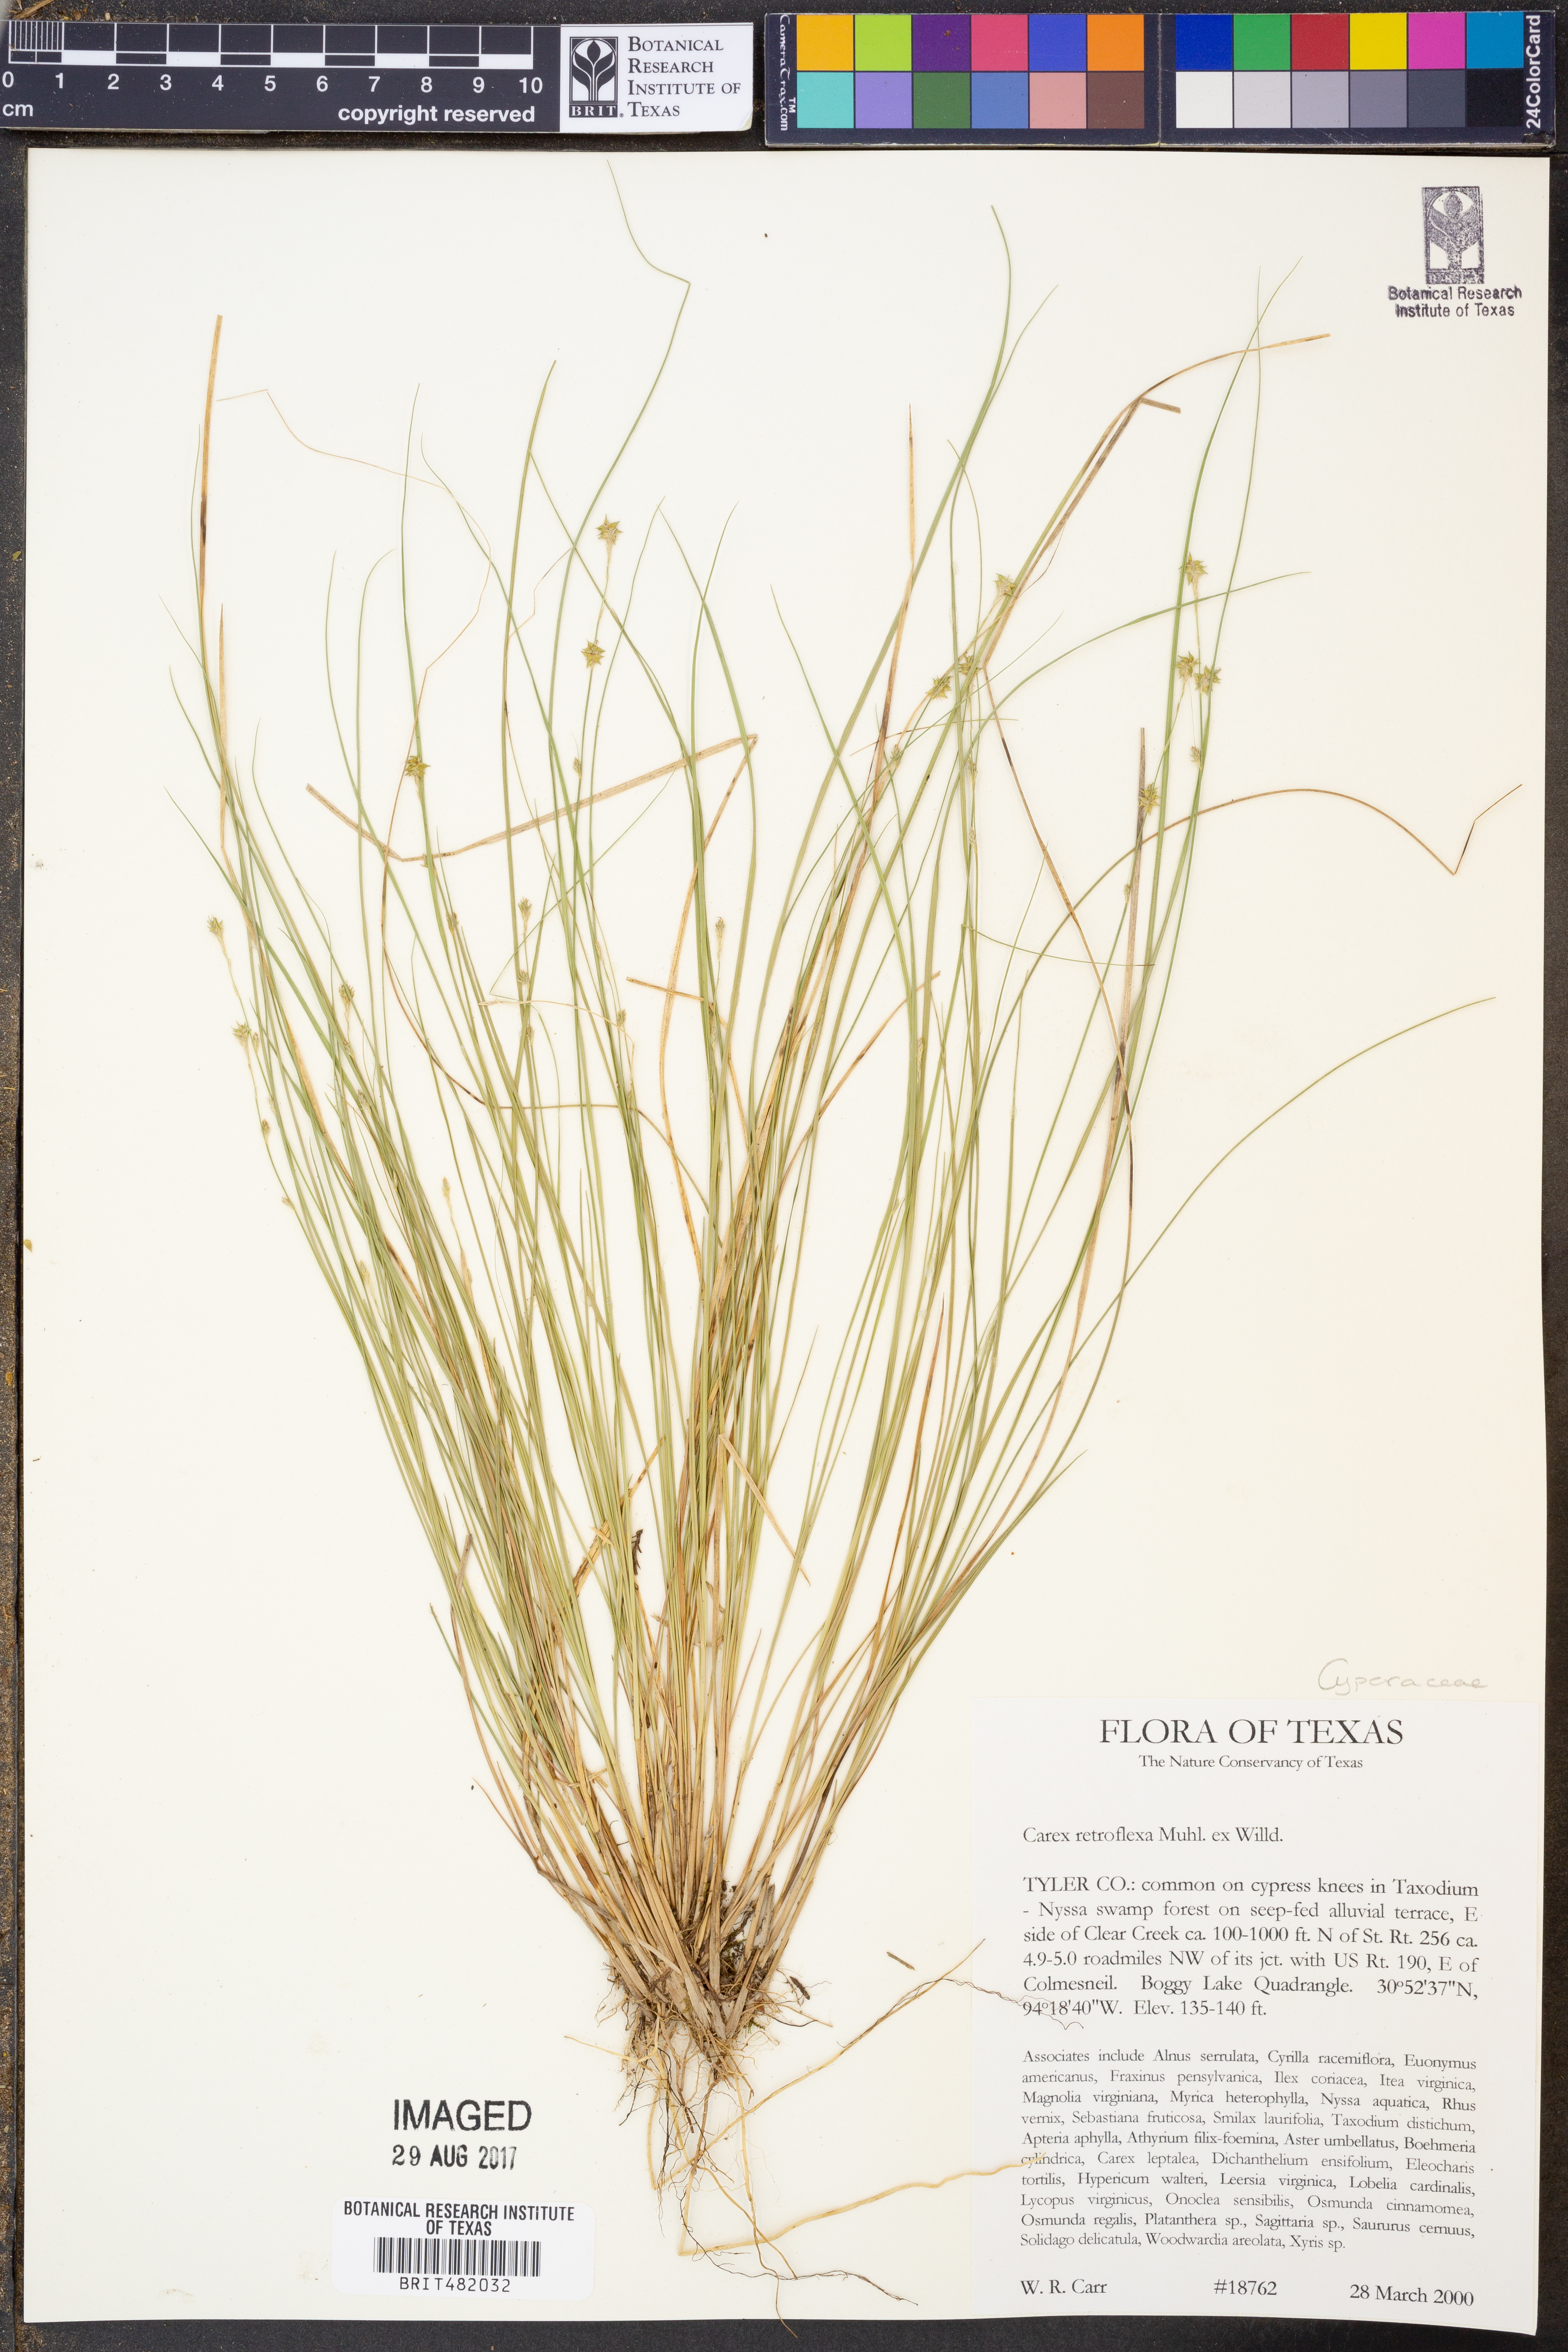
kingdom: Plantae
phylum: Tracheophyta
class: Liliopsida
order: Poales
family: Cyperaceae
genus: Carex
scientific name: Carex retroflexa
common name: Reflexed sedge
